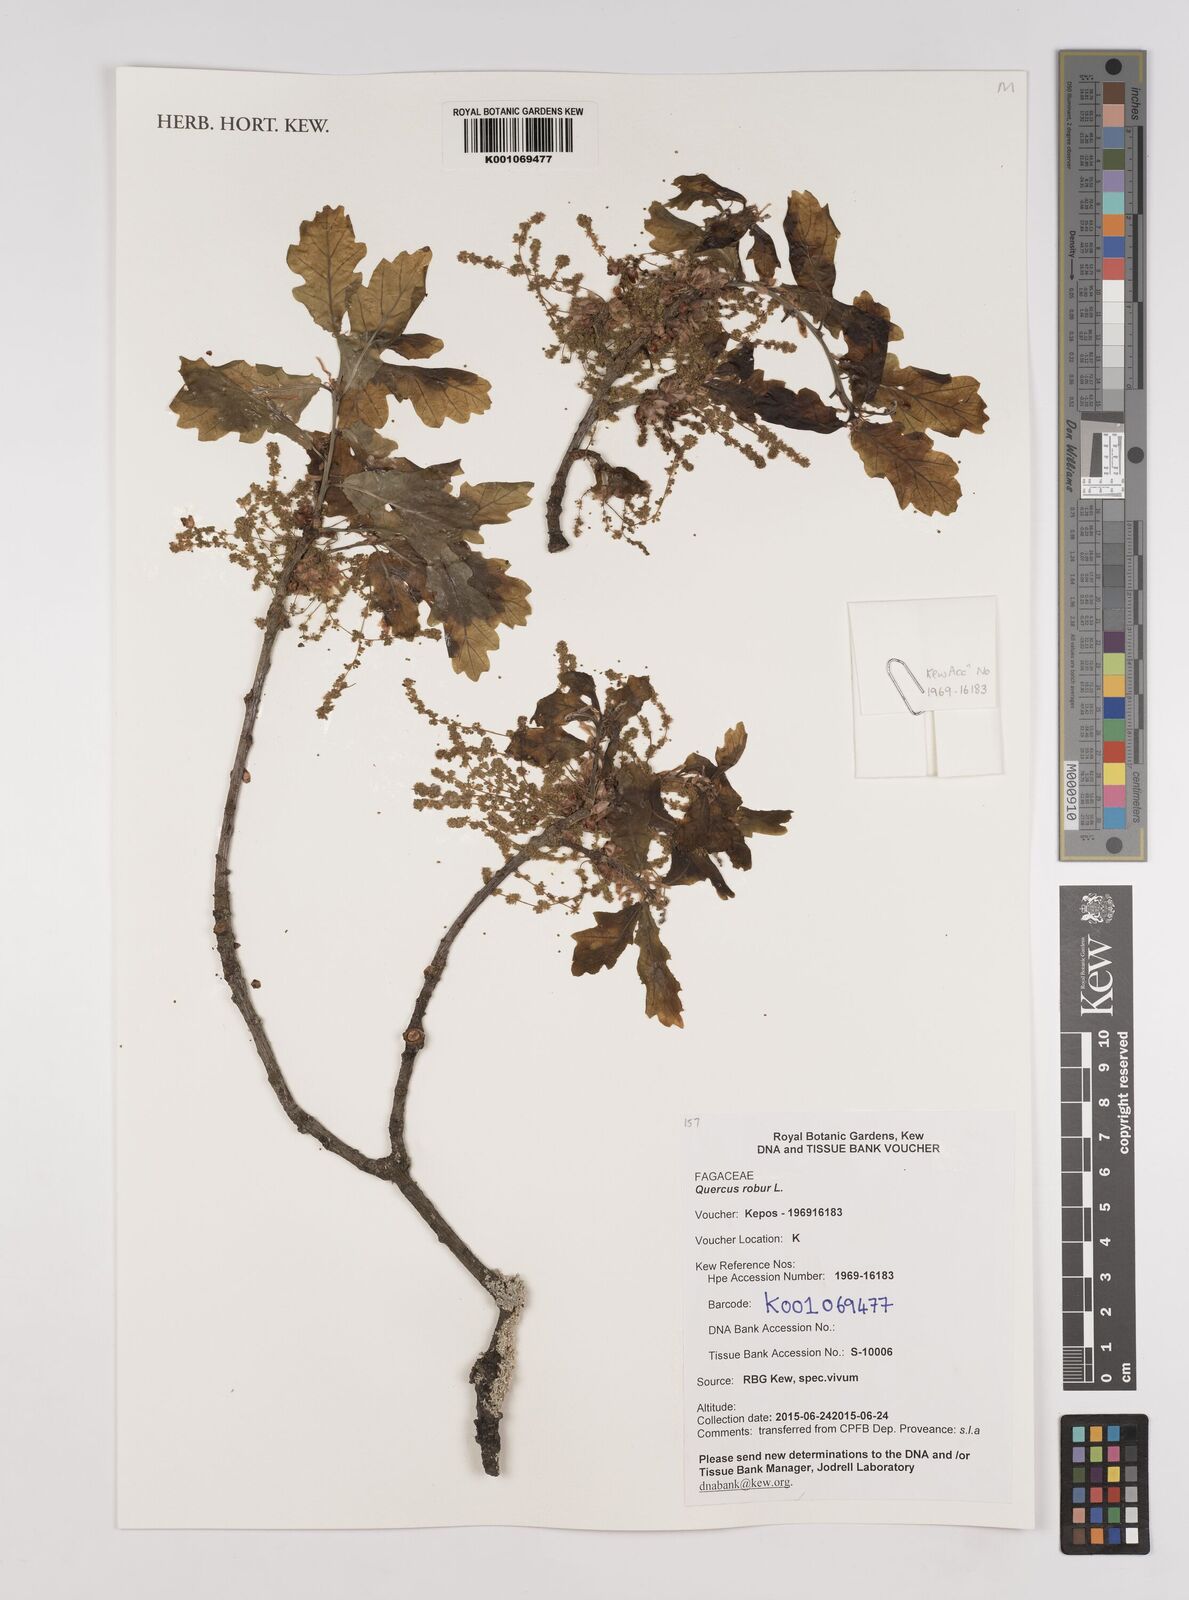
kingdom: Plantae
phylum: Tracheophyta
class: Magnoliopsida
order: Fagales
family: Fagaceae
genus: Quercus
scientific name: Quercus robur
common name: Pedunculate oak
